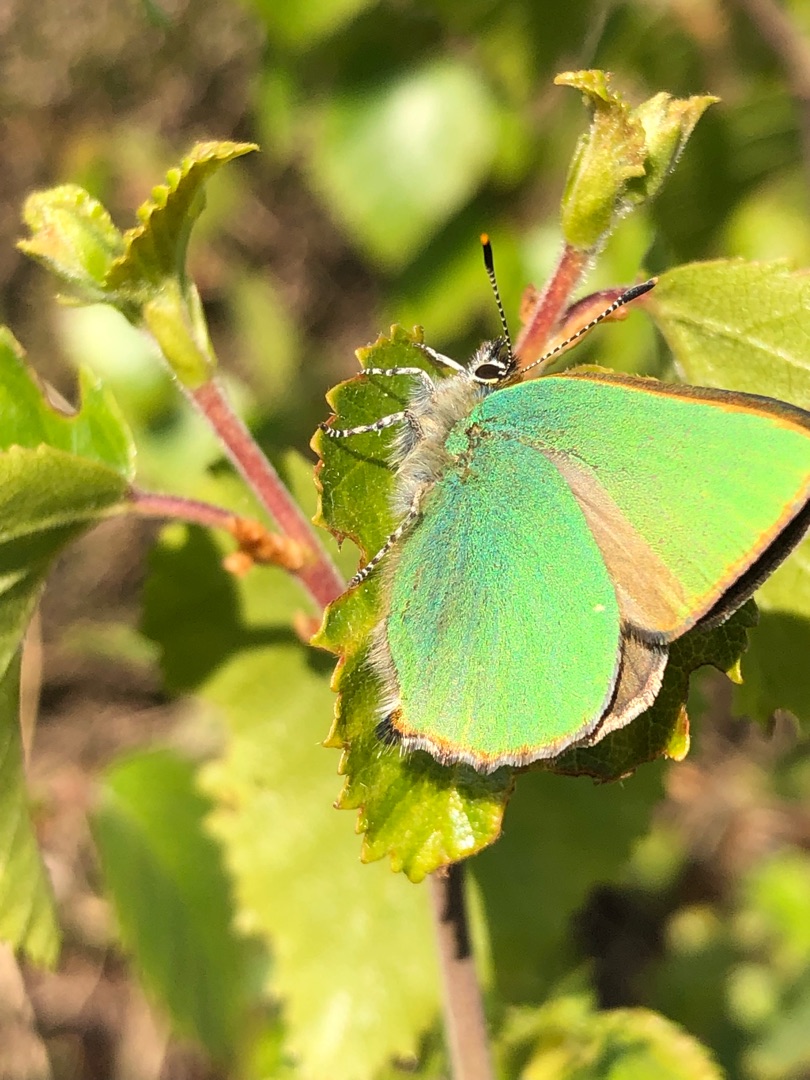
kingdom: Animalia
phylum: Arthropoda
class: Insecta
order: Lepidoptera
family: Lycaenidae
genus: Callophrys
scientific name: Callophrys rubi
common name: Grøn busksommerfugl
